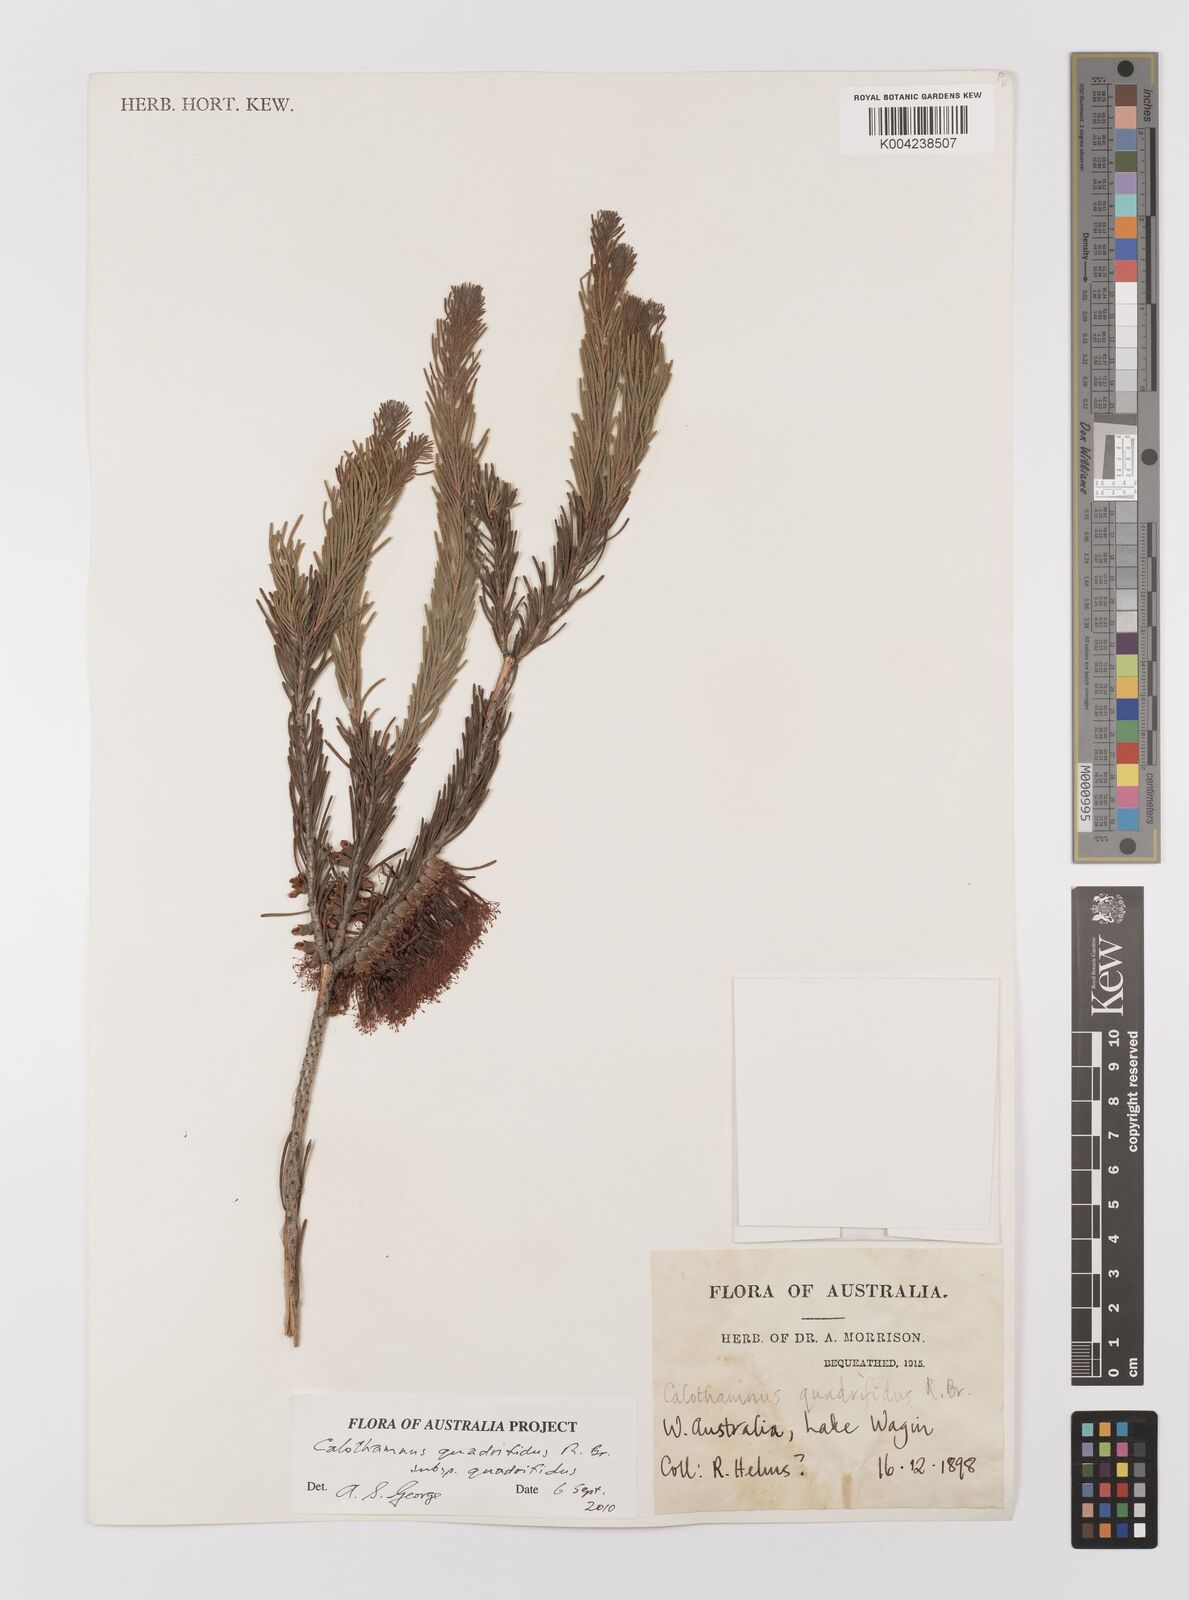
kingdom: Plantae
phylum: Tracheophyta
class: Magnoliopsida
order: Myrtales
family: Myrtaceae
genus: Melaleuca
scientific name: Melaleuca quadrifida
